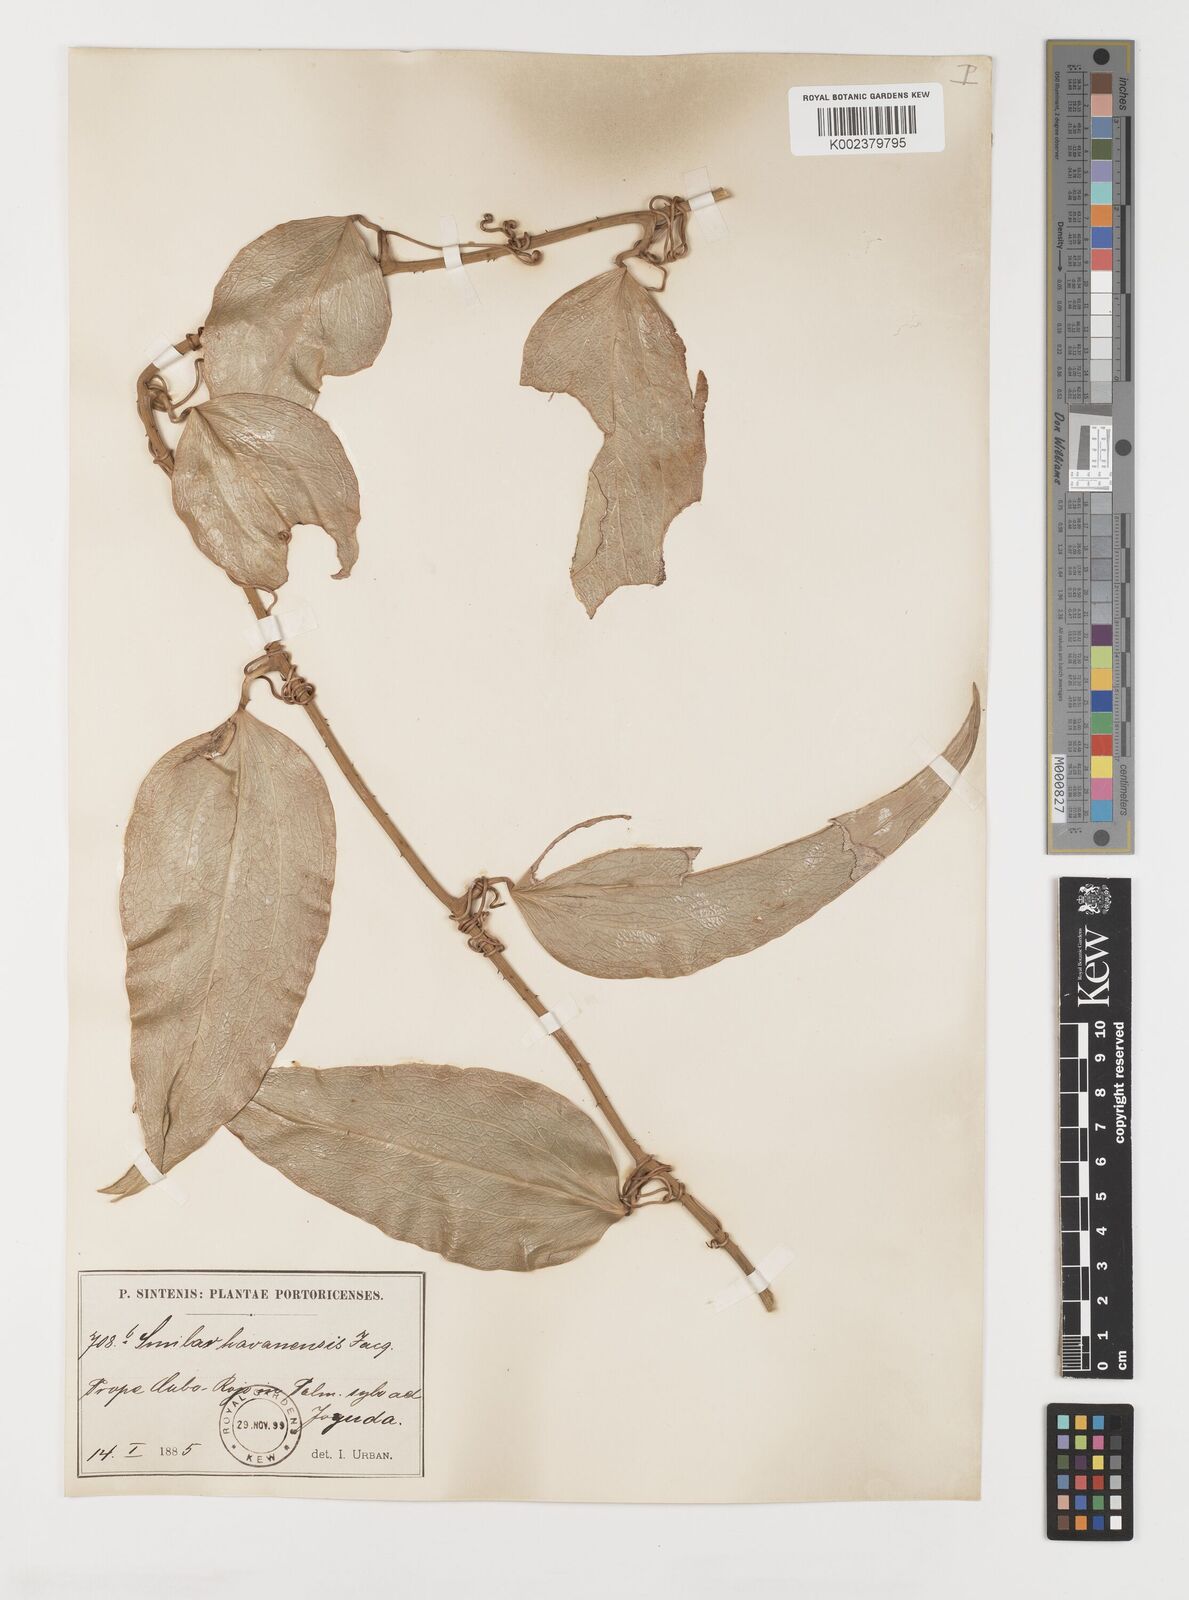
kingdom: Plantae
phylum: Tracheophyta
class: Liliopsida
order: Liliales
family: Smilacaceae
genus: Smilax
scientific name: Smilax ilicifolia
